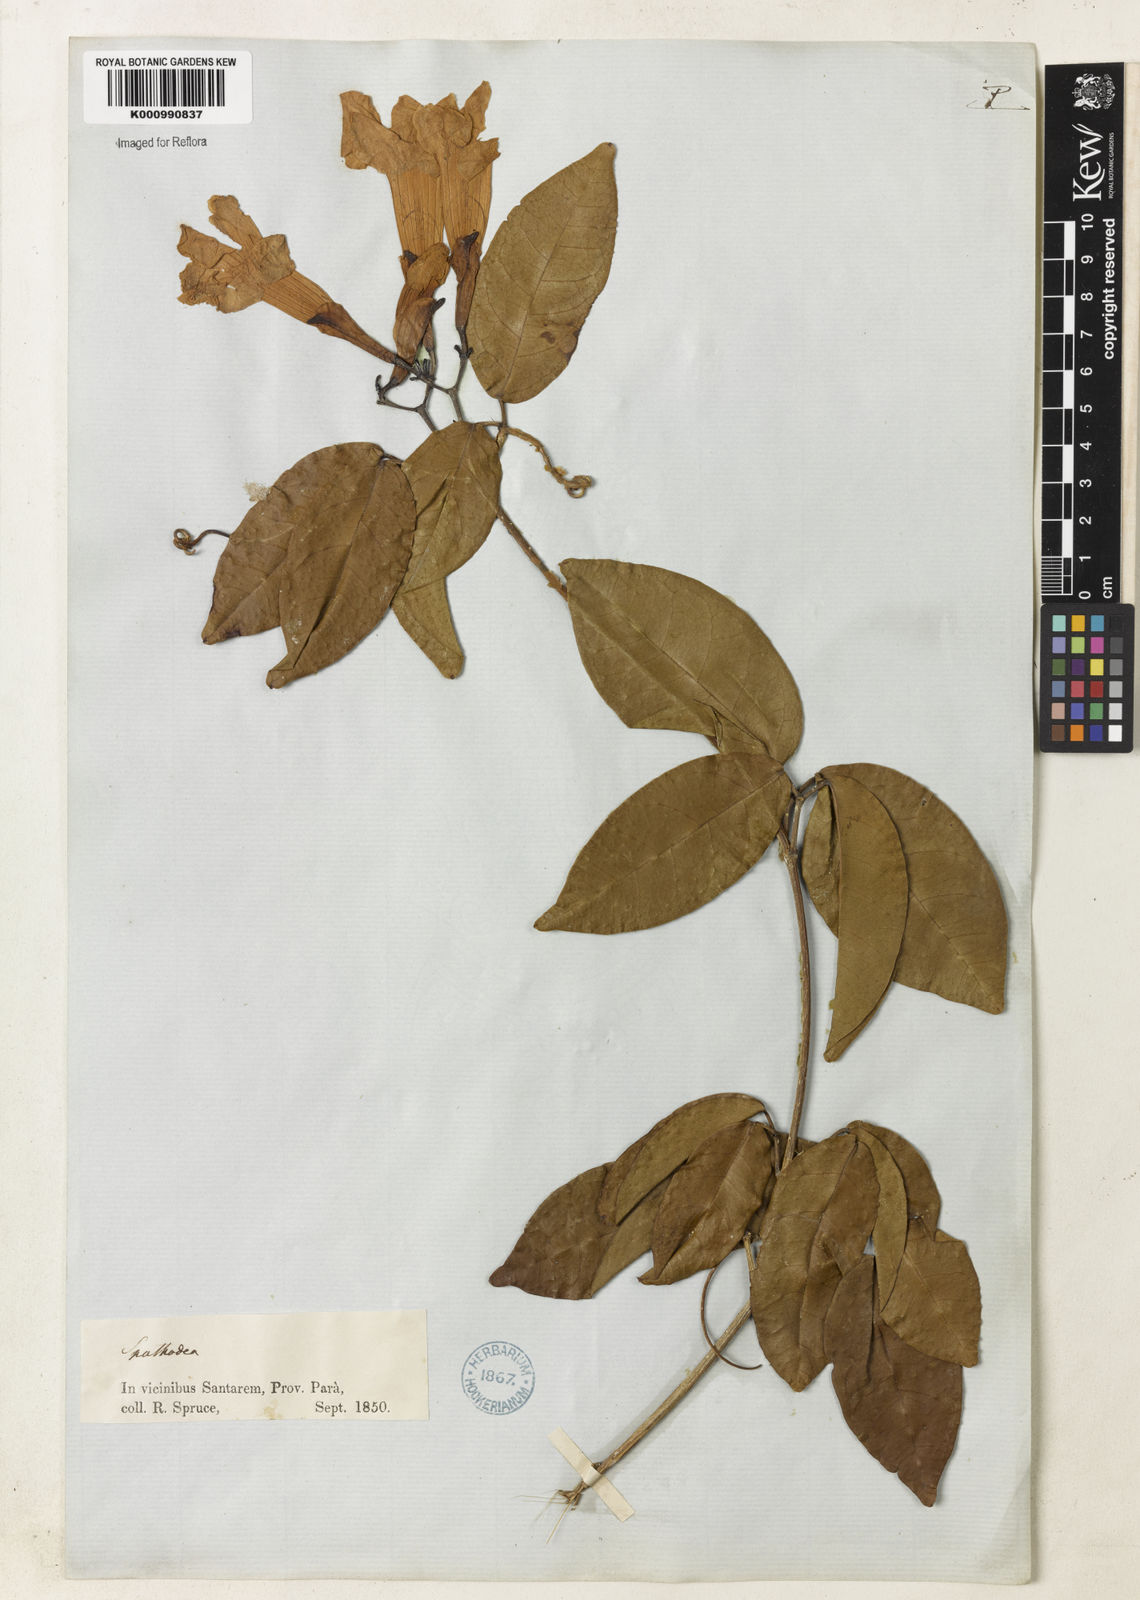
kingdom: Plantae
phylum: Tracheophyta
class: Magnoliopsida
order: Lamiales
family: Bignoniaceae
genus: Bignonia
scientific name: Bignonia corymbosa
